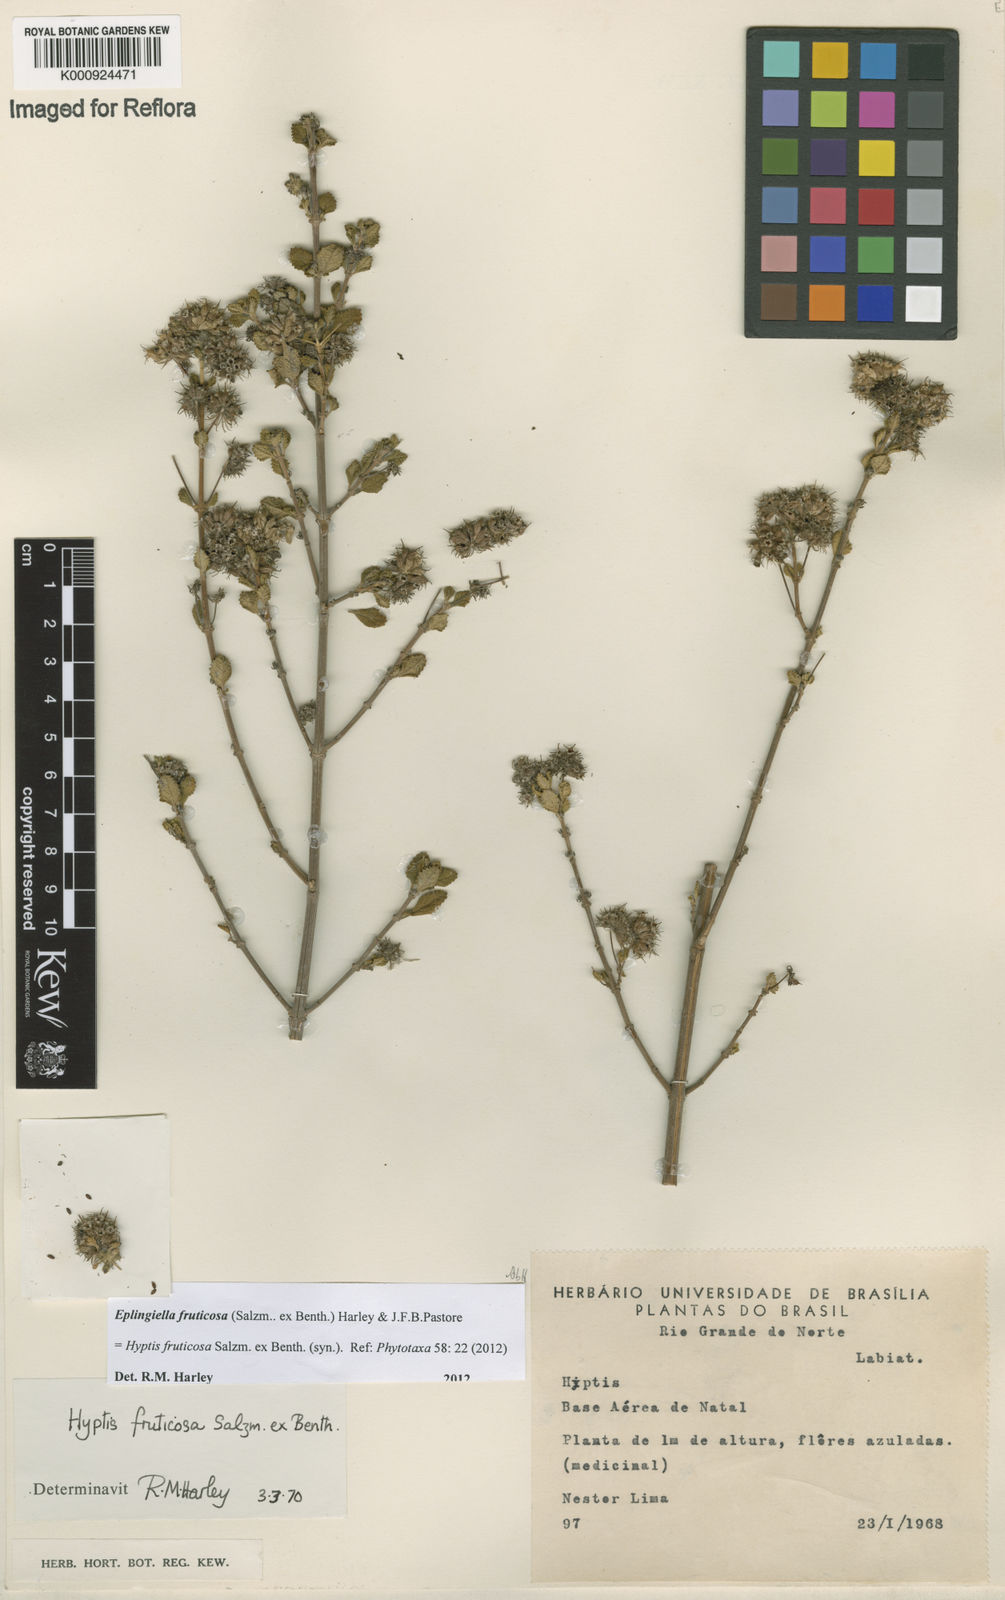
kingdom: Plantae
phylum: Tracheophyta
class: Magnoliopsida
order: Lamiales
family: Lamiaceae
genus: Eplingiella
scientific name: Eplingiella fruticosa
